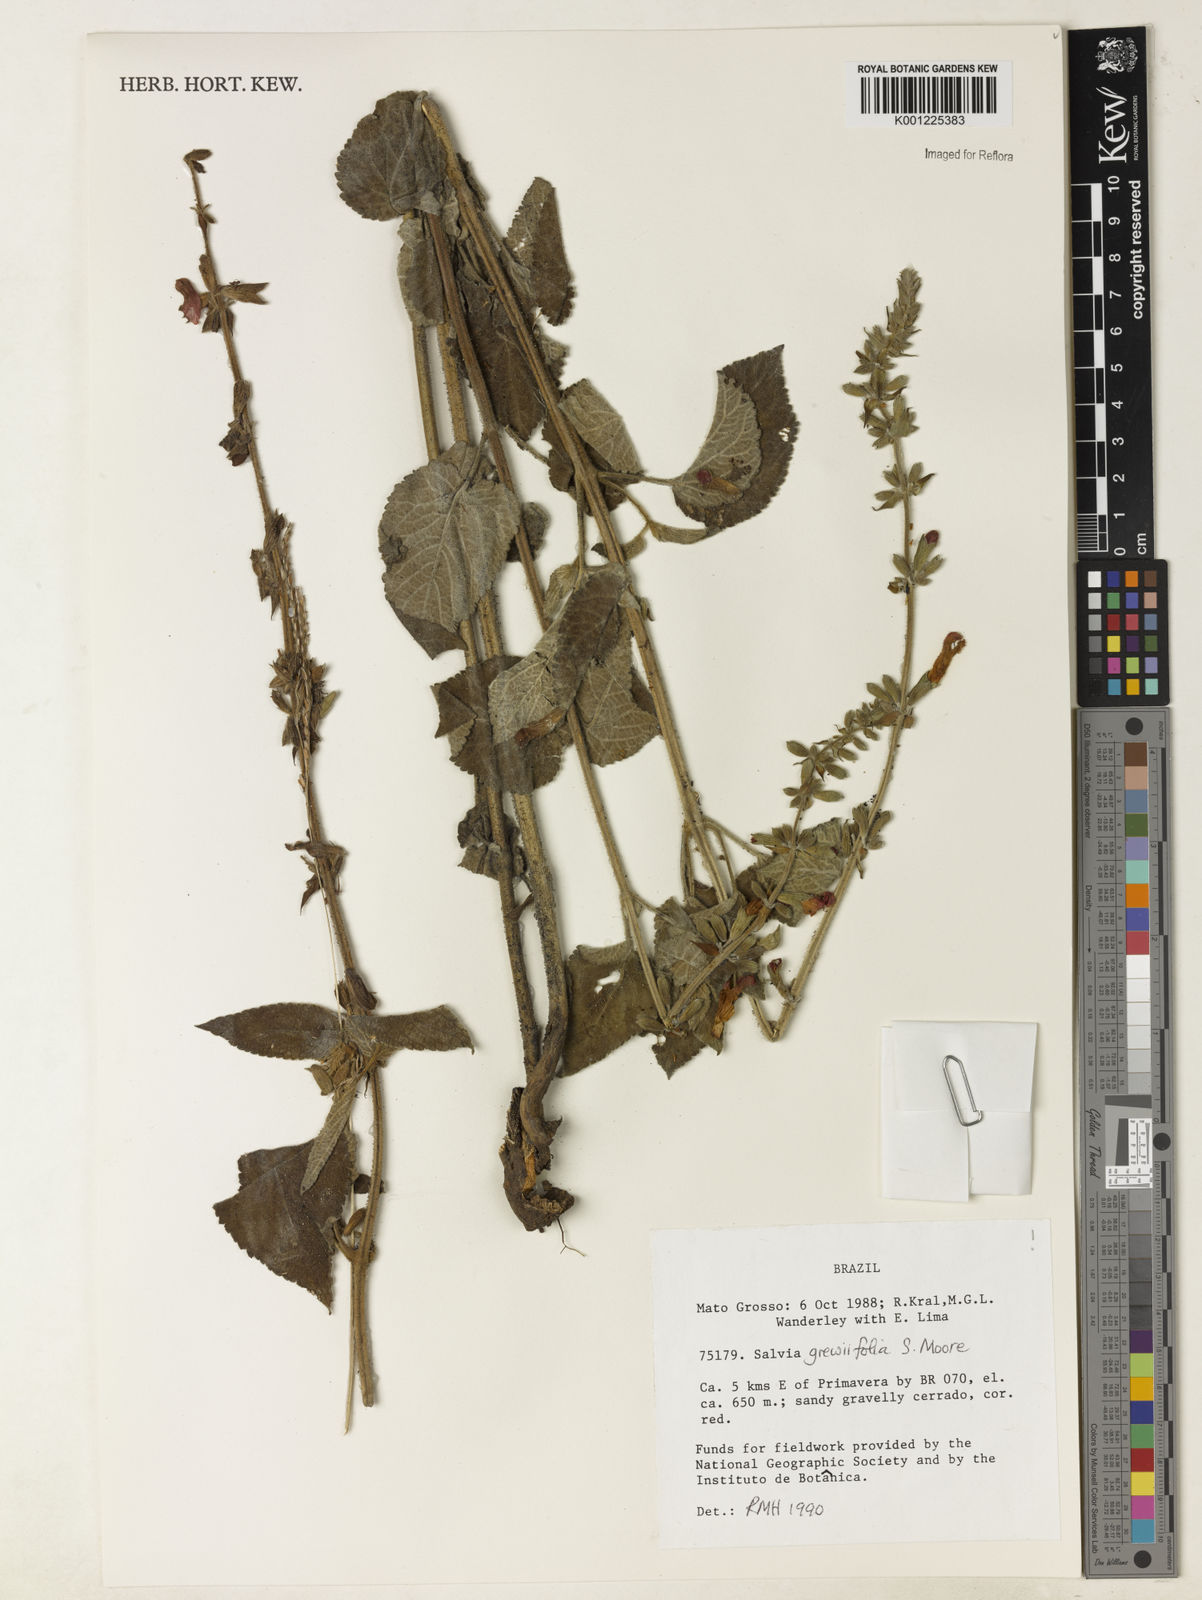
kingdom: Plantae
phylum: Tracheophyta
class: Magnoliopsida
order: Lamiales
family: Lamiaceae
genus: Salvia
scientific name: Salvia grewiifolia
